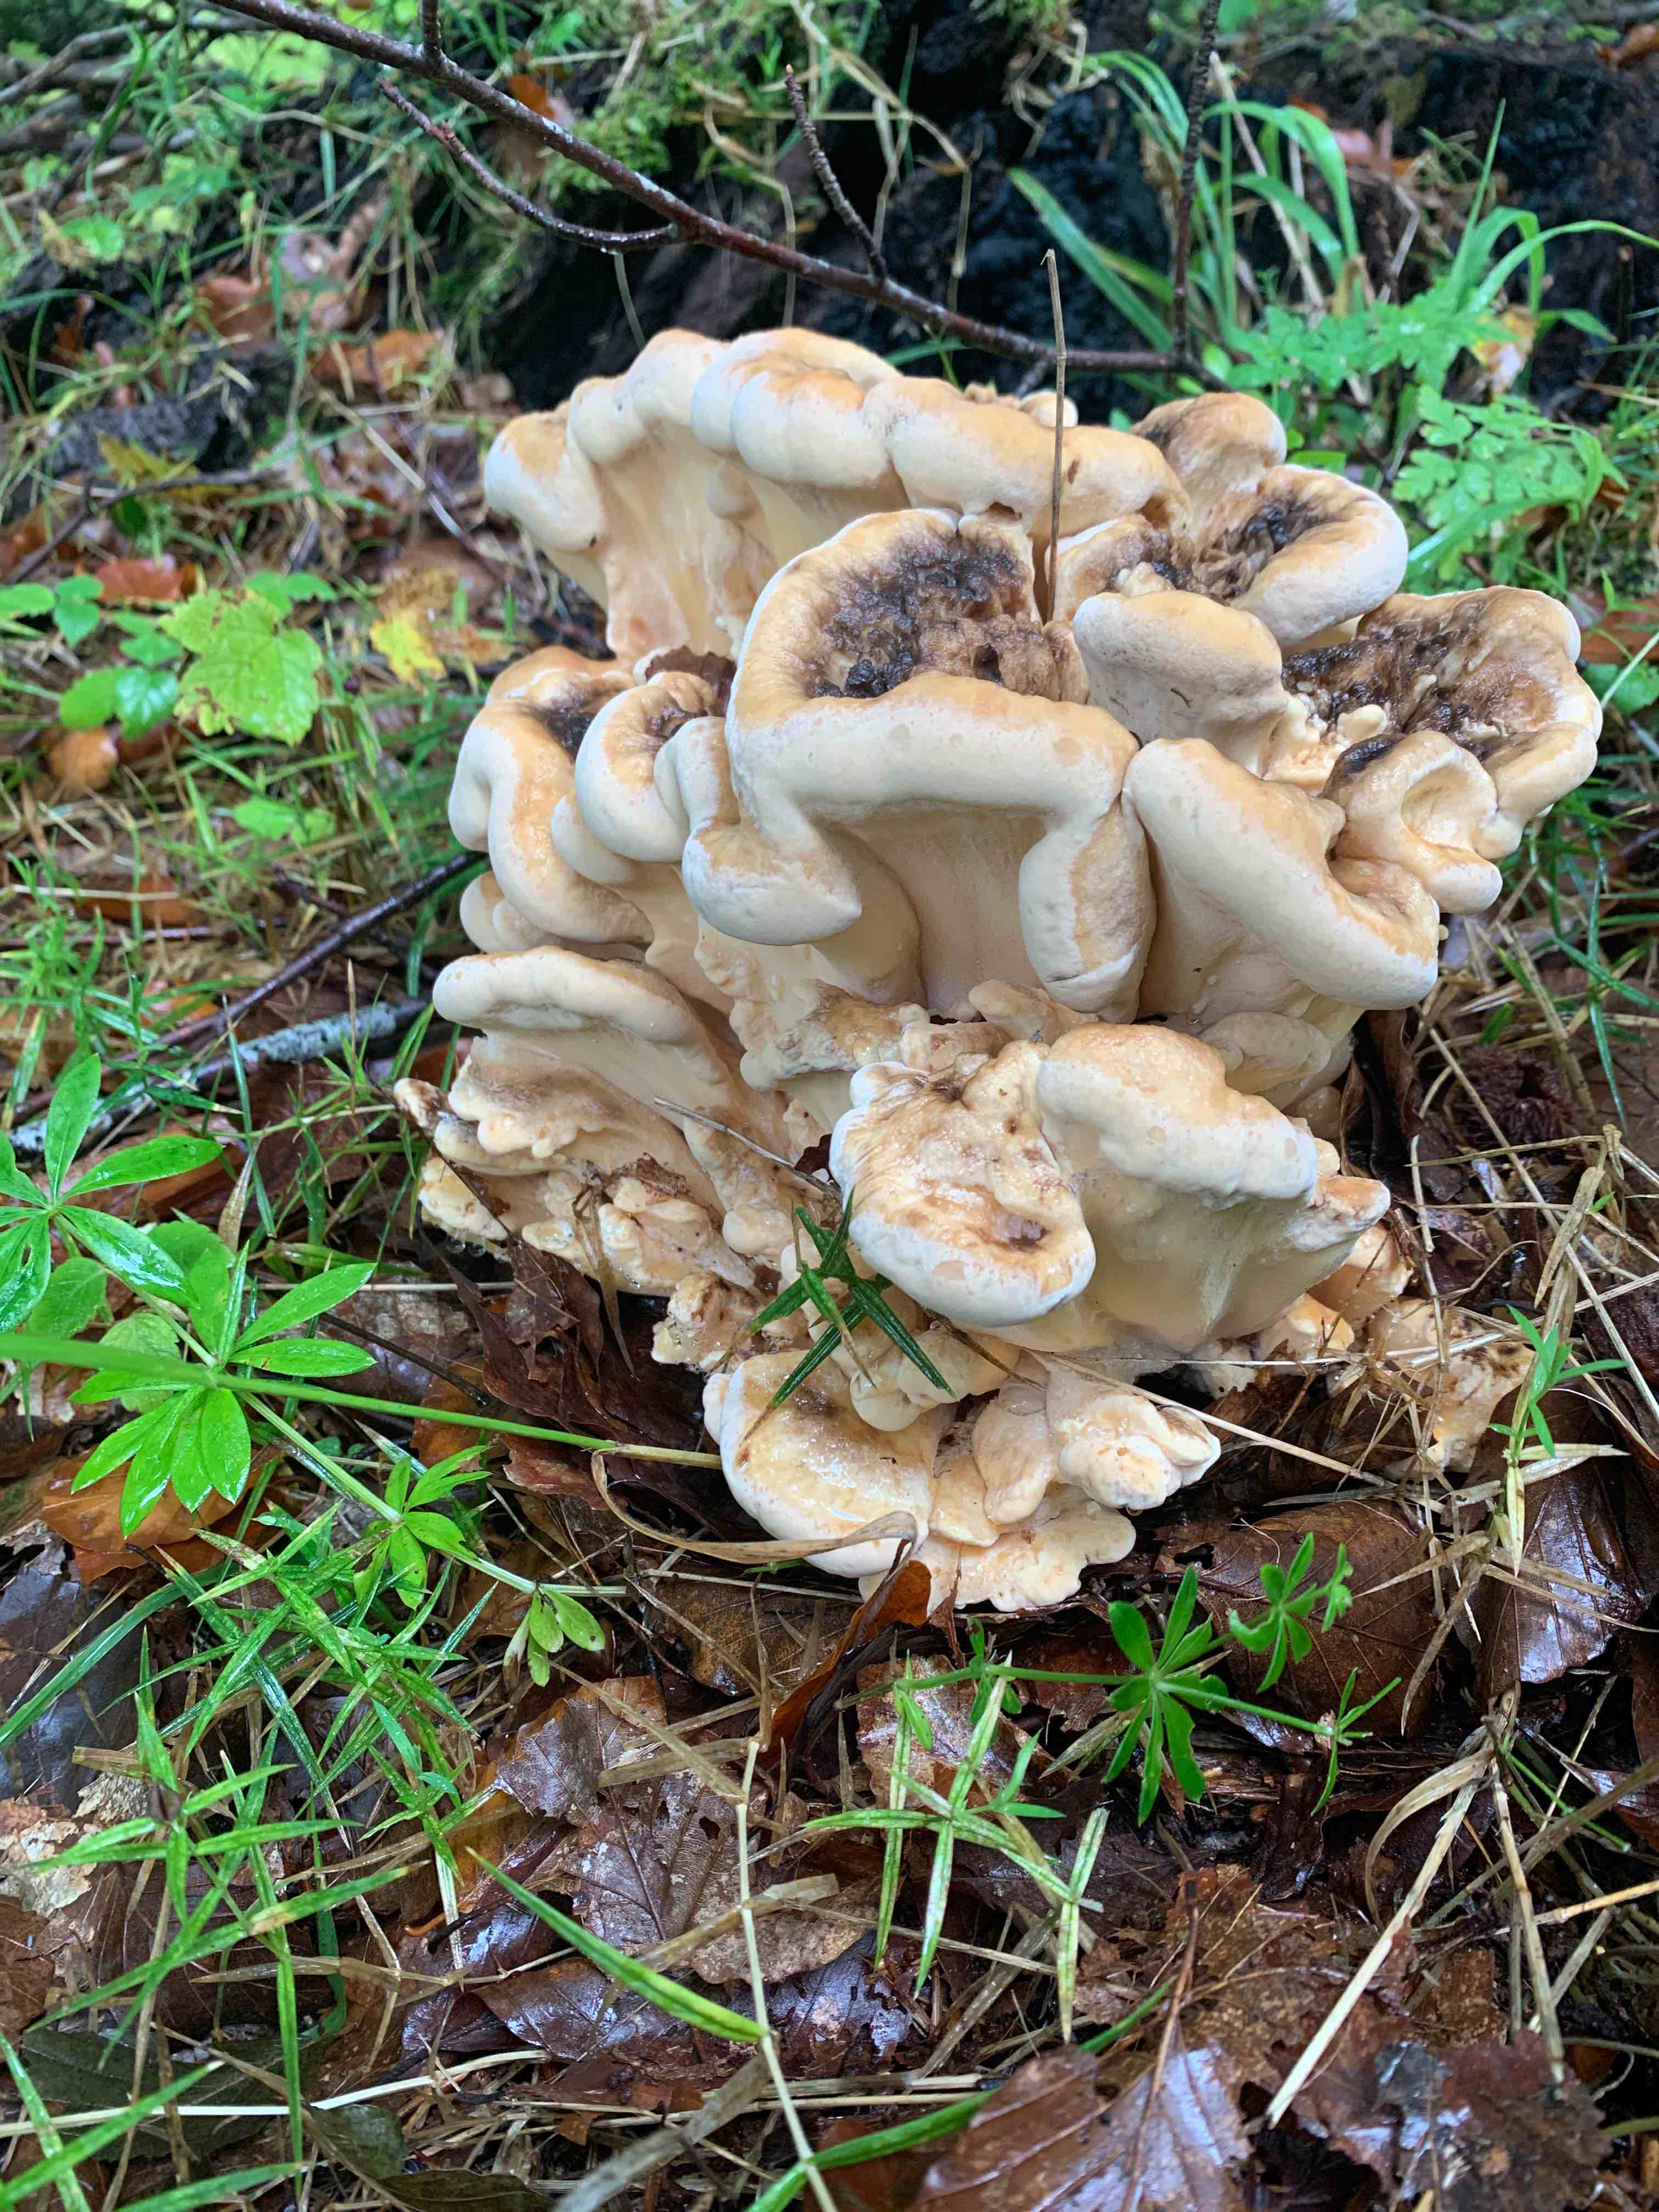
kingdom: Fungi
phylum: Basidiomycota
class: Agaricomycetes
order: Polyporales
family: Meripilaceae
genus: Meripilus
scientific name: Meripilus giganteus
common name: kæmpeporesvamp
